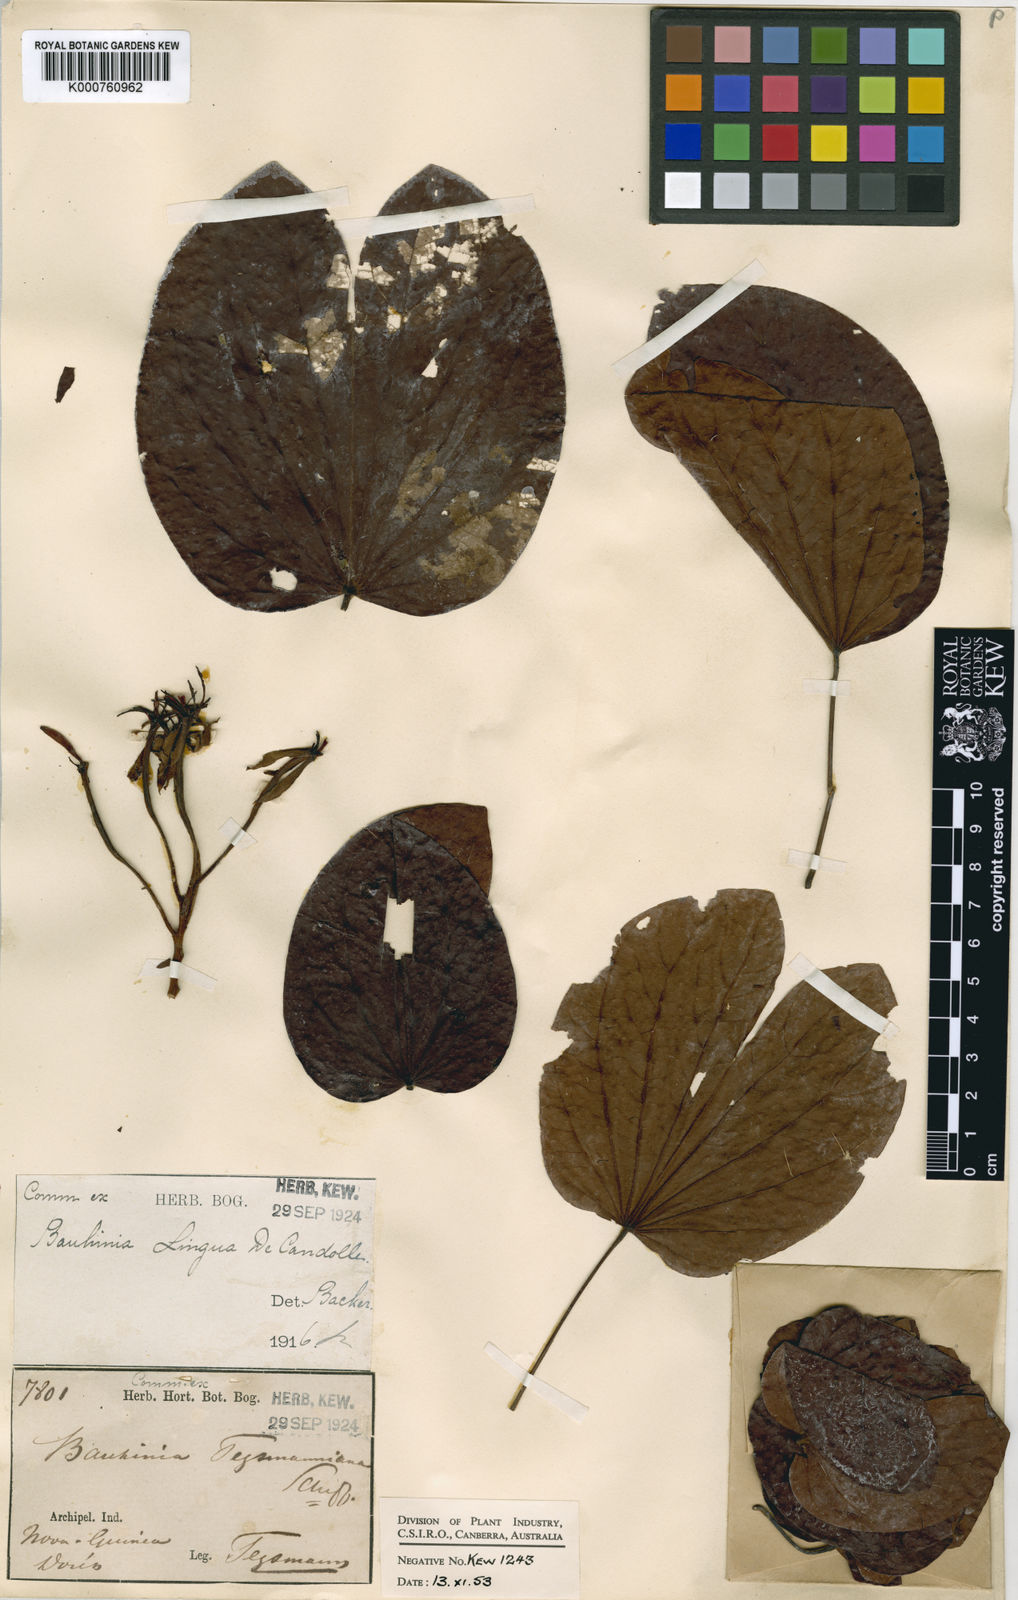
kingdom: Plantae
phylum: Tracheophyta
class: Magnoliopsida
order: Fabales
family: Fabaceae
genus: Phanera
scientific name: Phanera lingua
